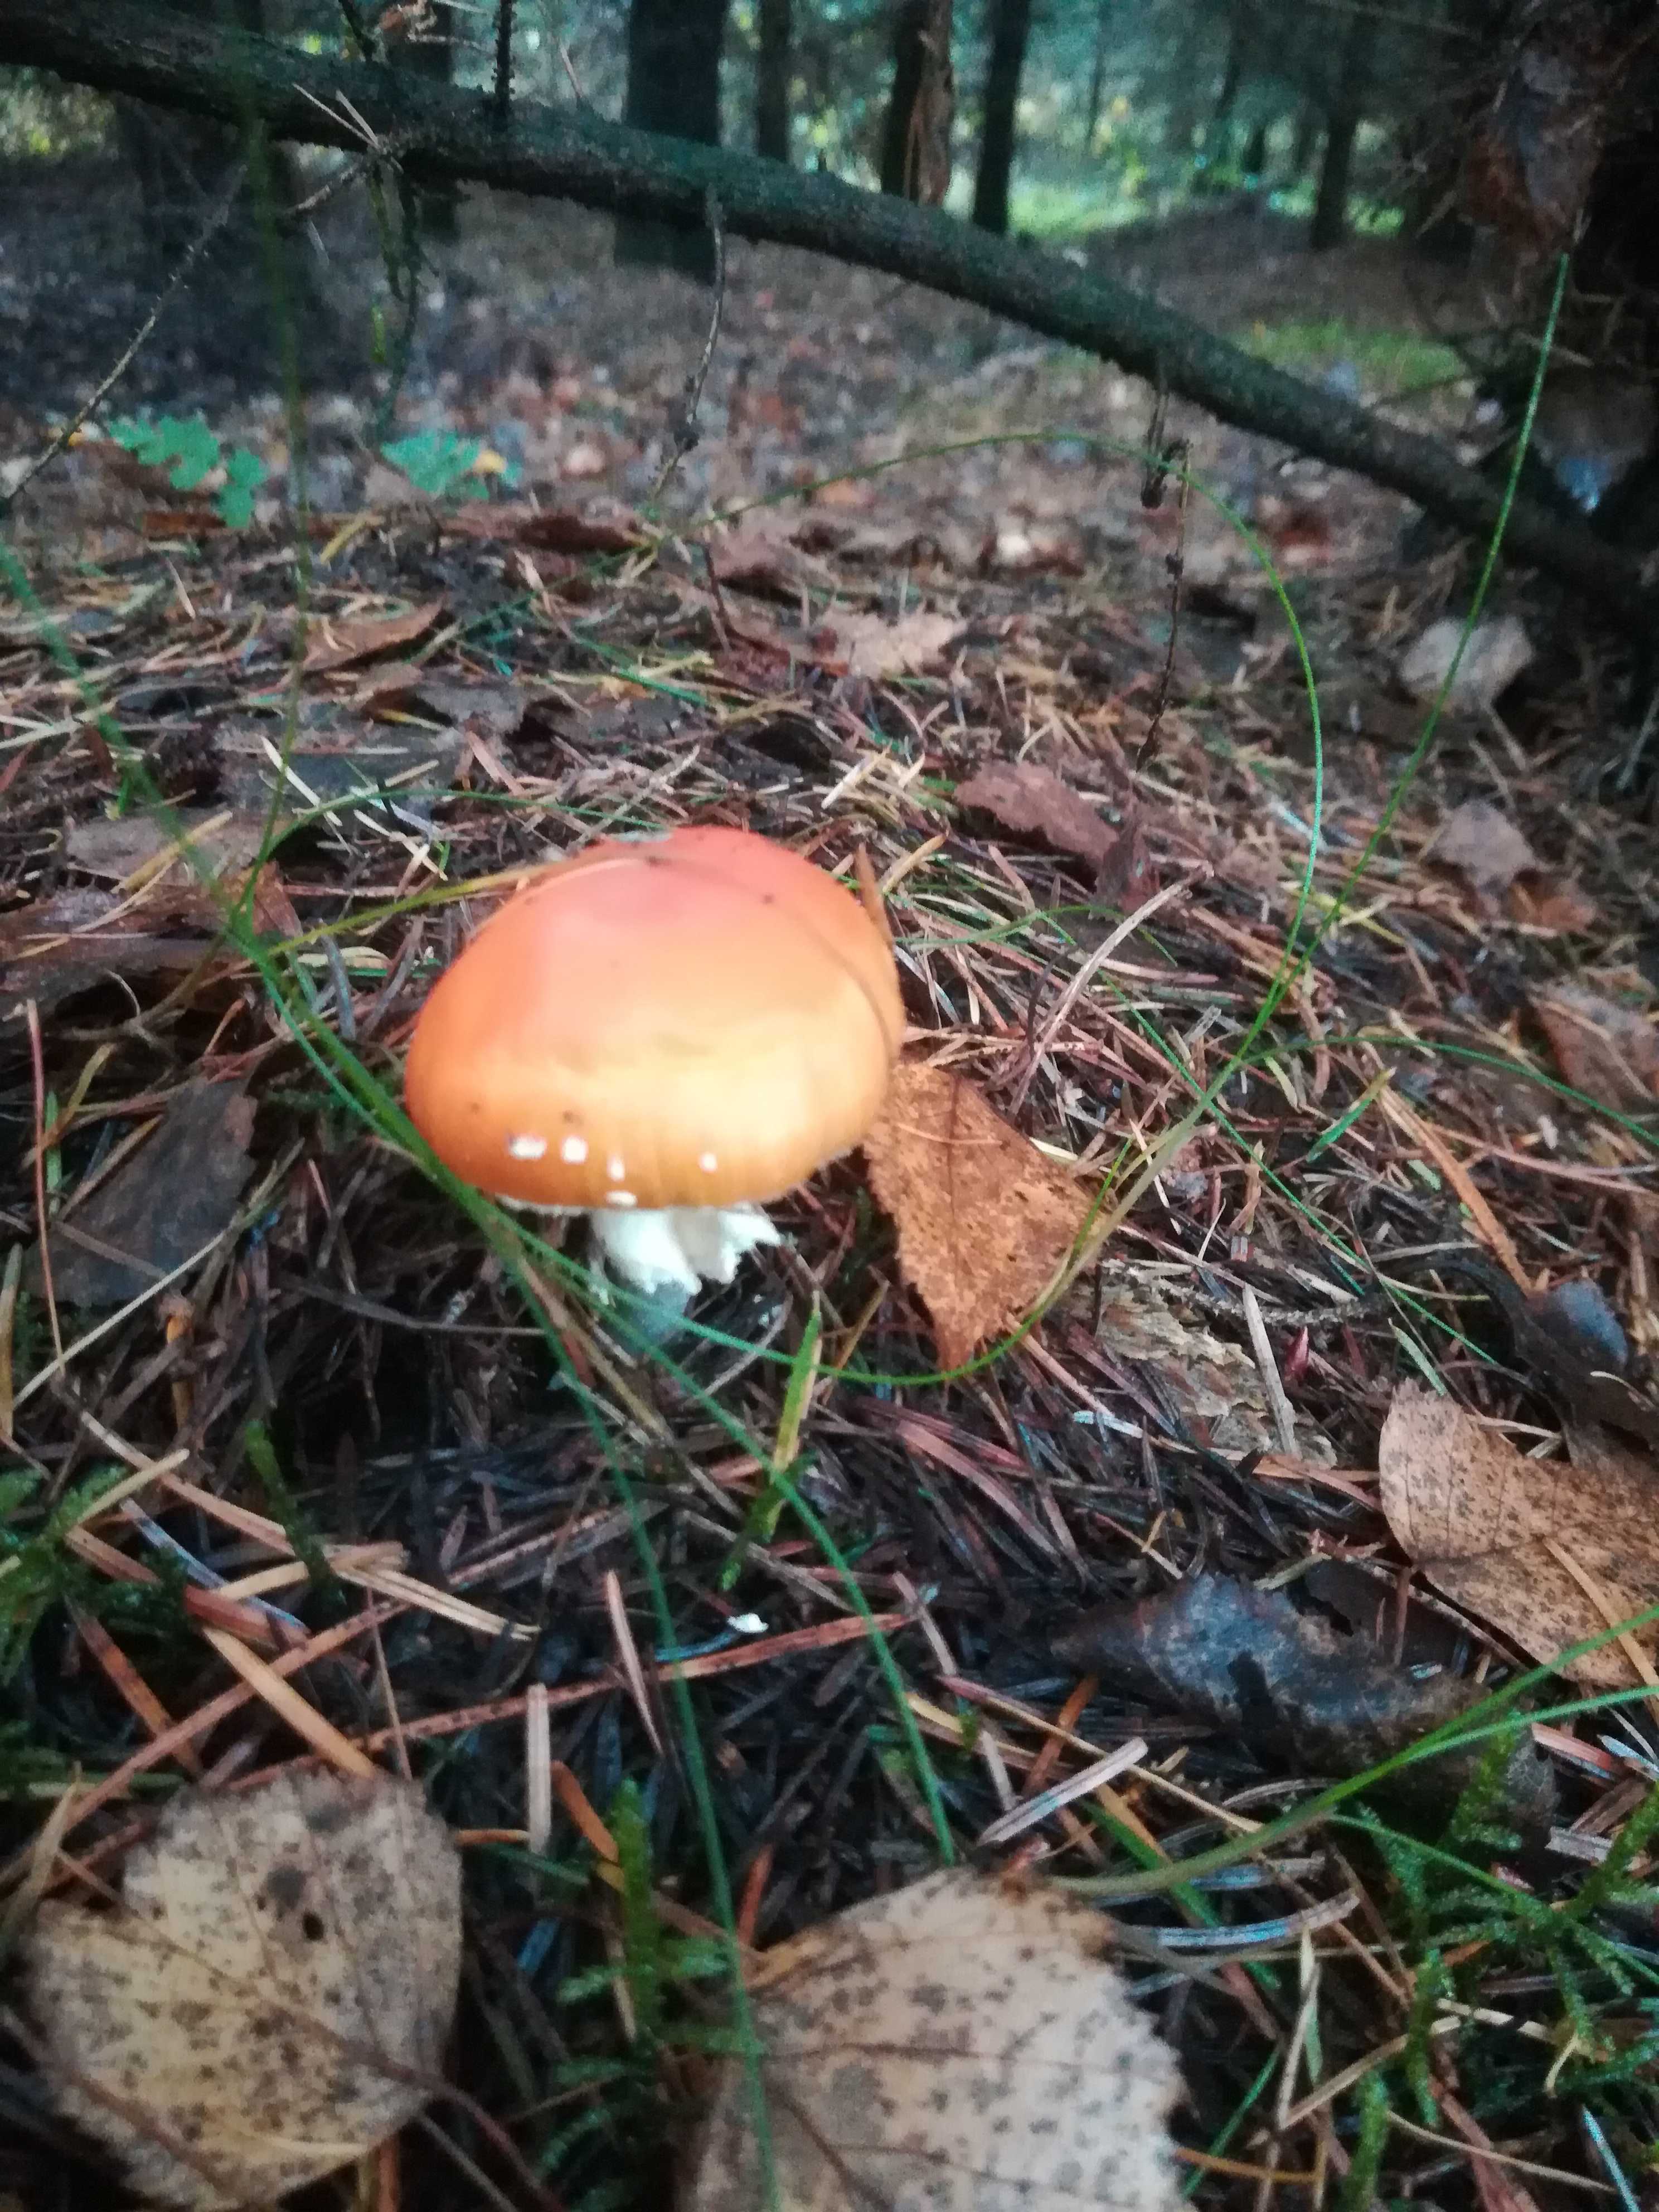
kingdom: Fungi
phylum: Basidiomycota
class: Agaricomycetes
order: Agaricales
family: Amanitaceae
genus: Amanita
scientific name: Amanita muscaria
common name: rød fluesvamp
